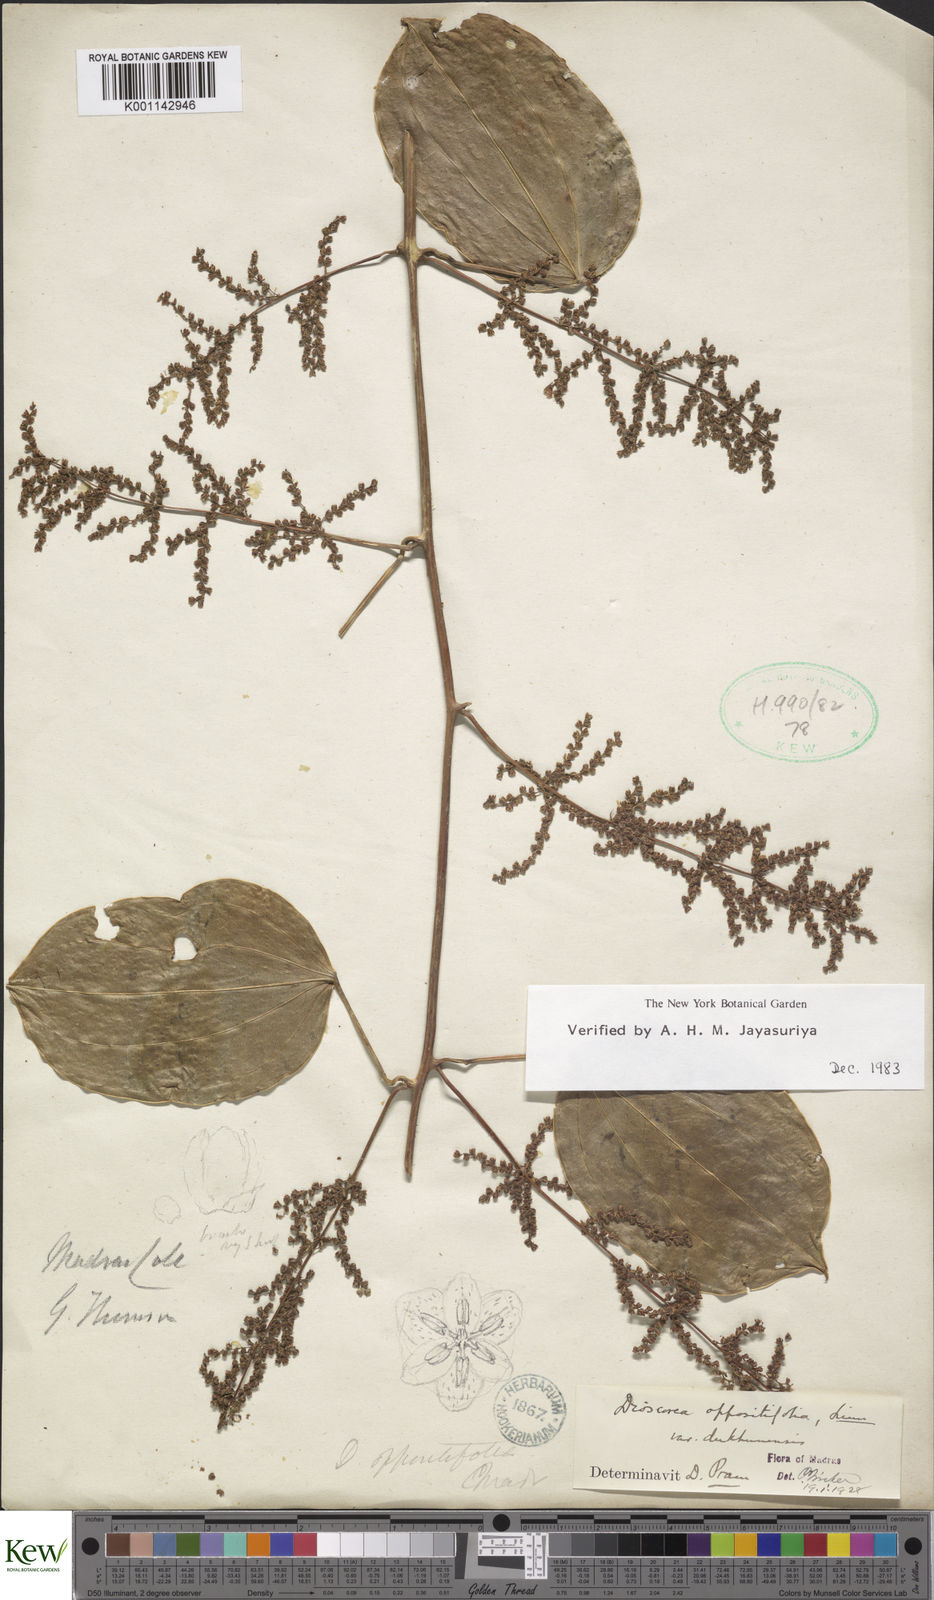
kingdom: Plantae
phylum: Tracheophyta
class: Liliopsida
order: Dioscoreales
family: Dioscoreaceae
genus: Dioscorea
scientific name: Dioscorea oppositifolia
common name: Chinese yam
